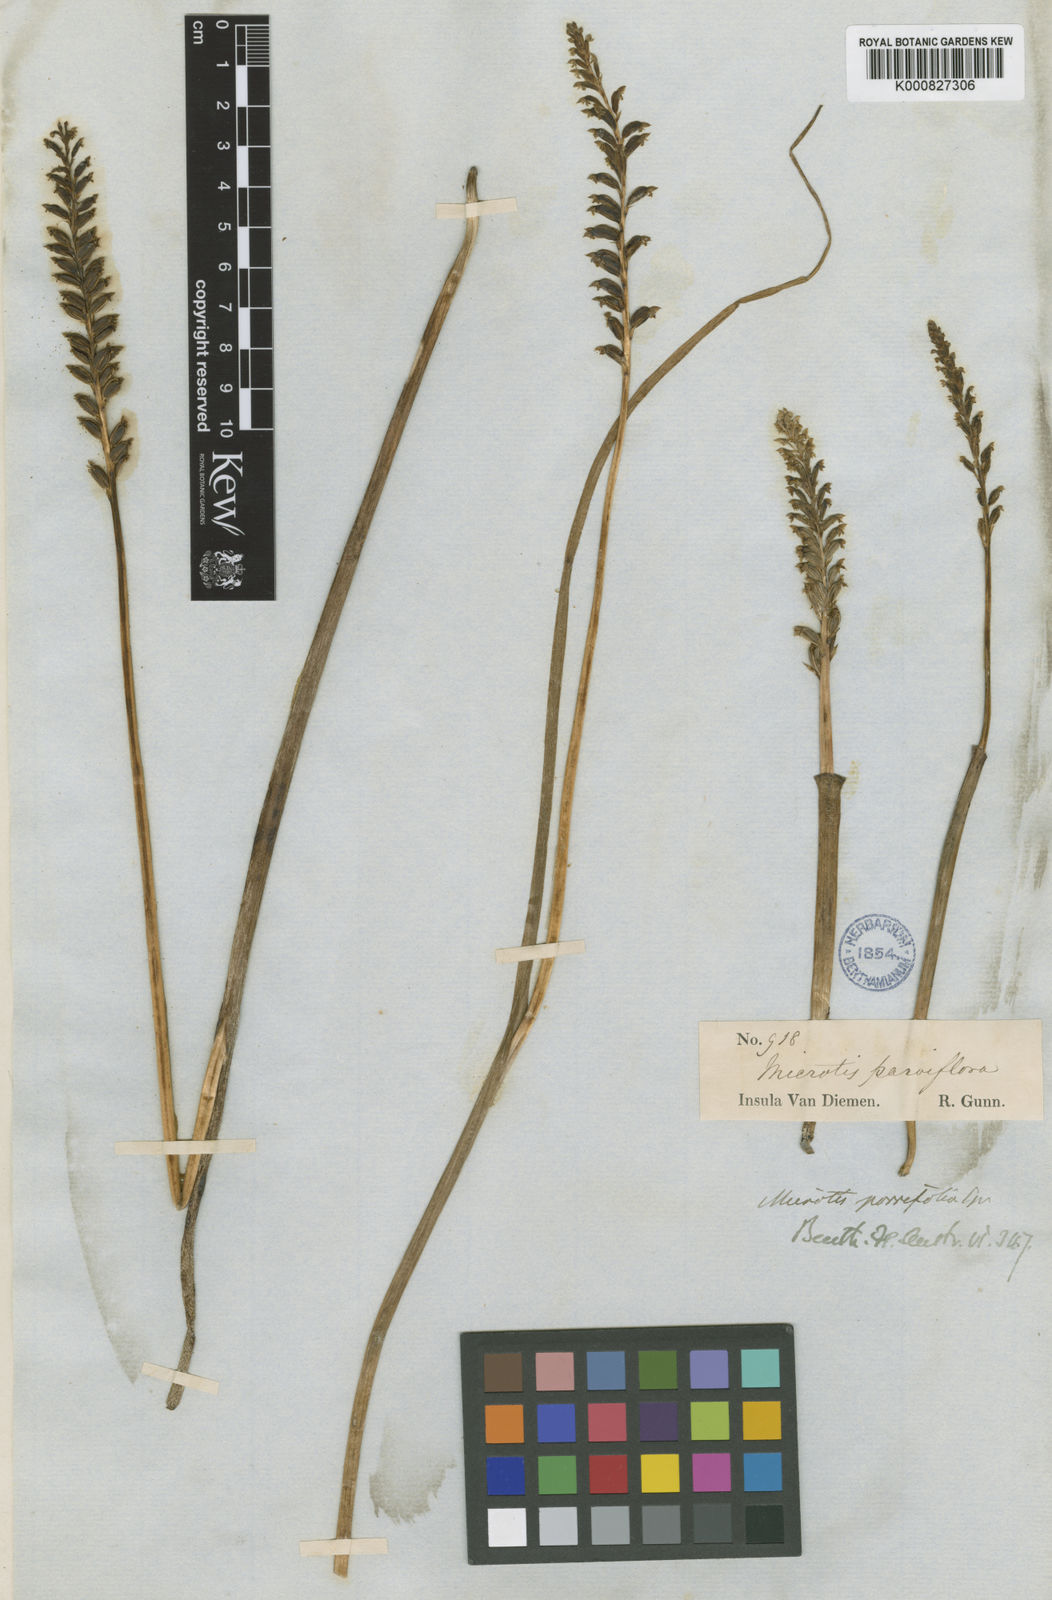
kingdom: Plantae
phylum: Tracheophyta
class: Liliopsida
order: Asparagales
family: Orchidaceae
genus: Microtis
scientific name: Microtis unifolia
